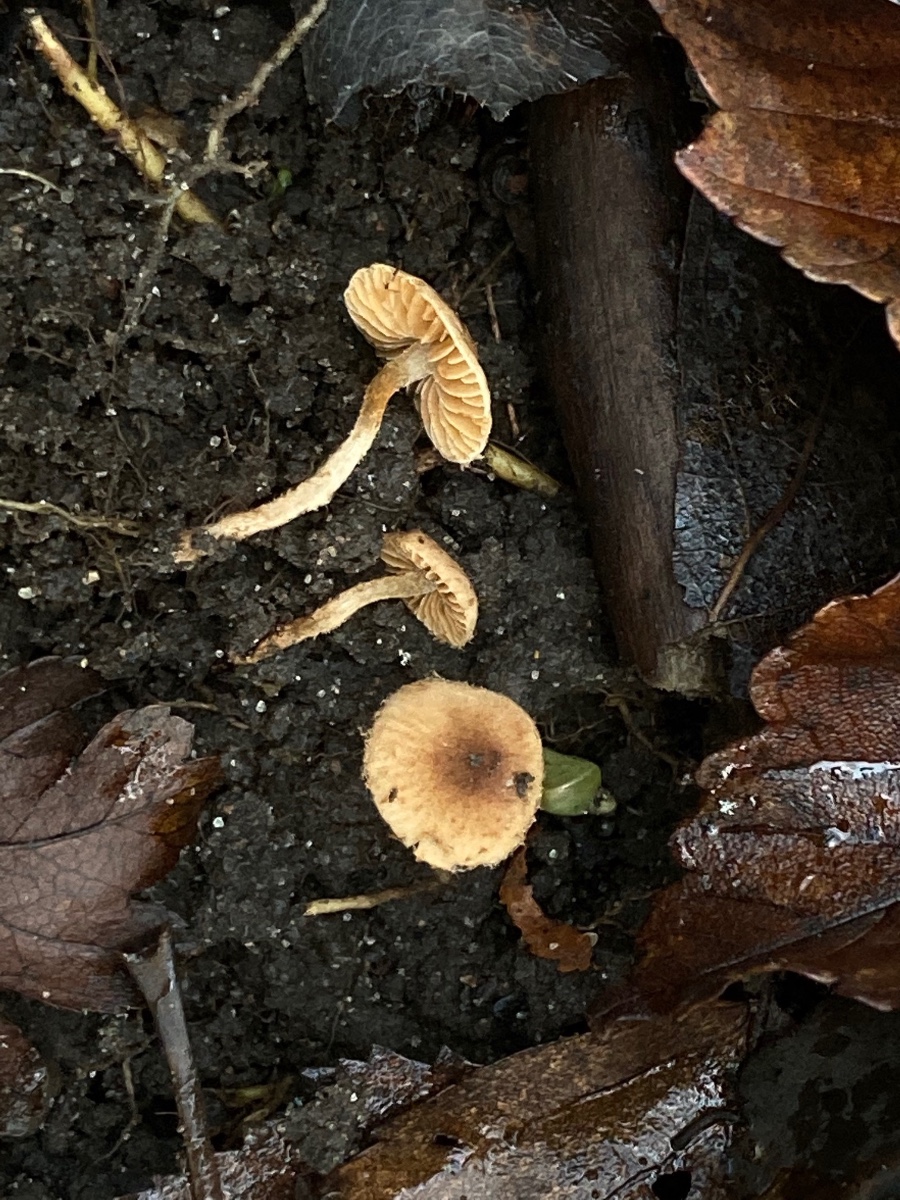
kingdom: Fungi
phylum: Basidiomycota
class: Agaricomycetes
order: Agaricales
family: Tubariaceae
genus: Flammulaster
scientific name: Flammulaster granulosus
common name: gulbrun grynskælhat
